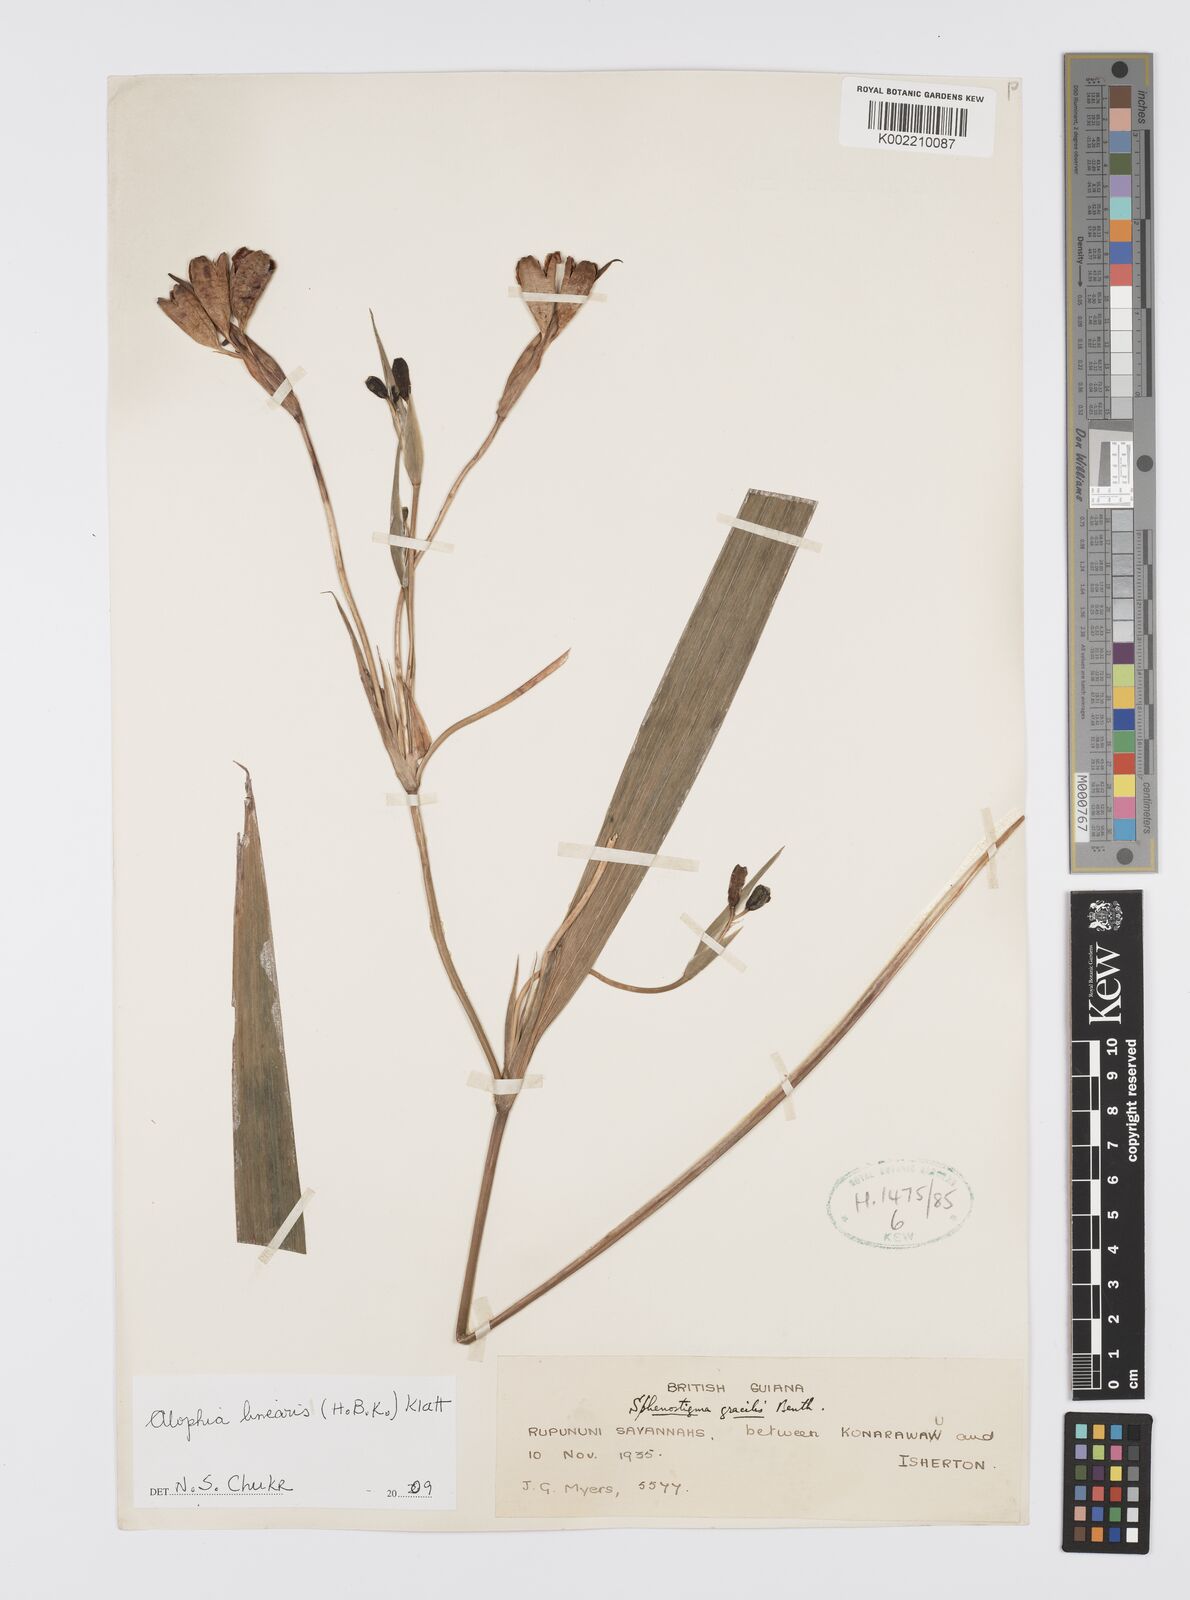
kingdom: Plantae
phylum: Tracheophyta
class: Liliopsida
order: Asparagales
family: Iridaceae
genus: Larentia
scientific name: Larentia linearis
